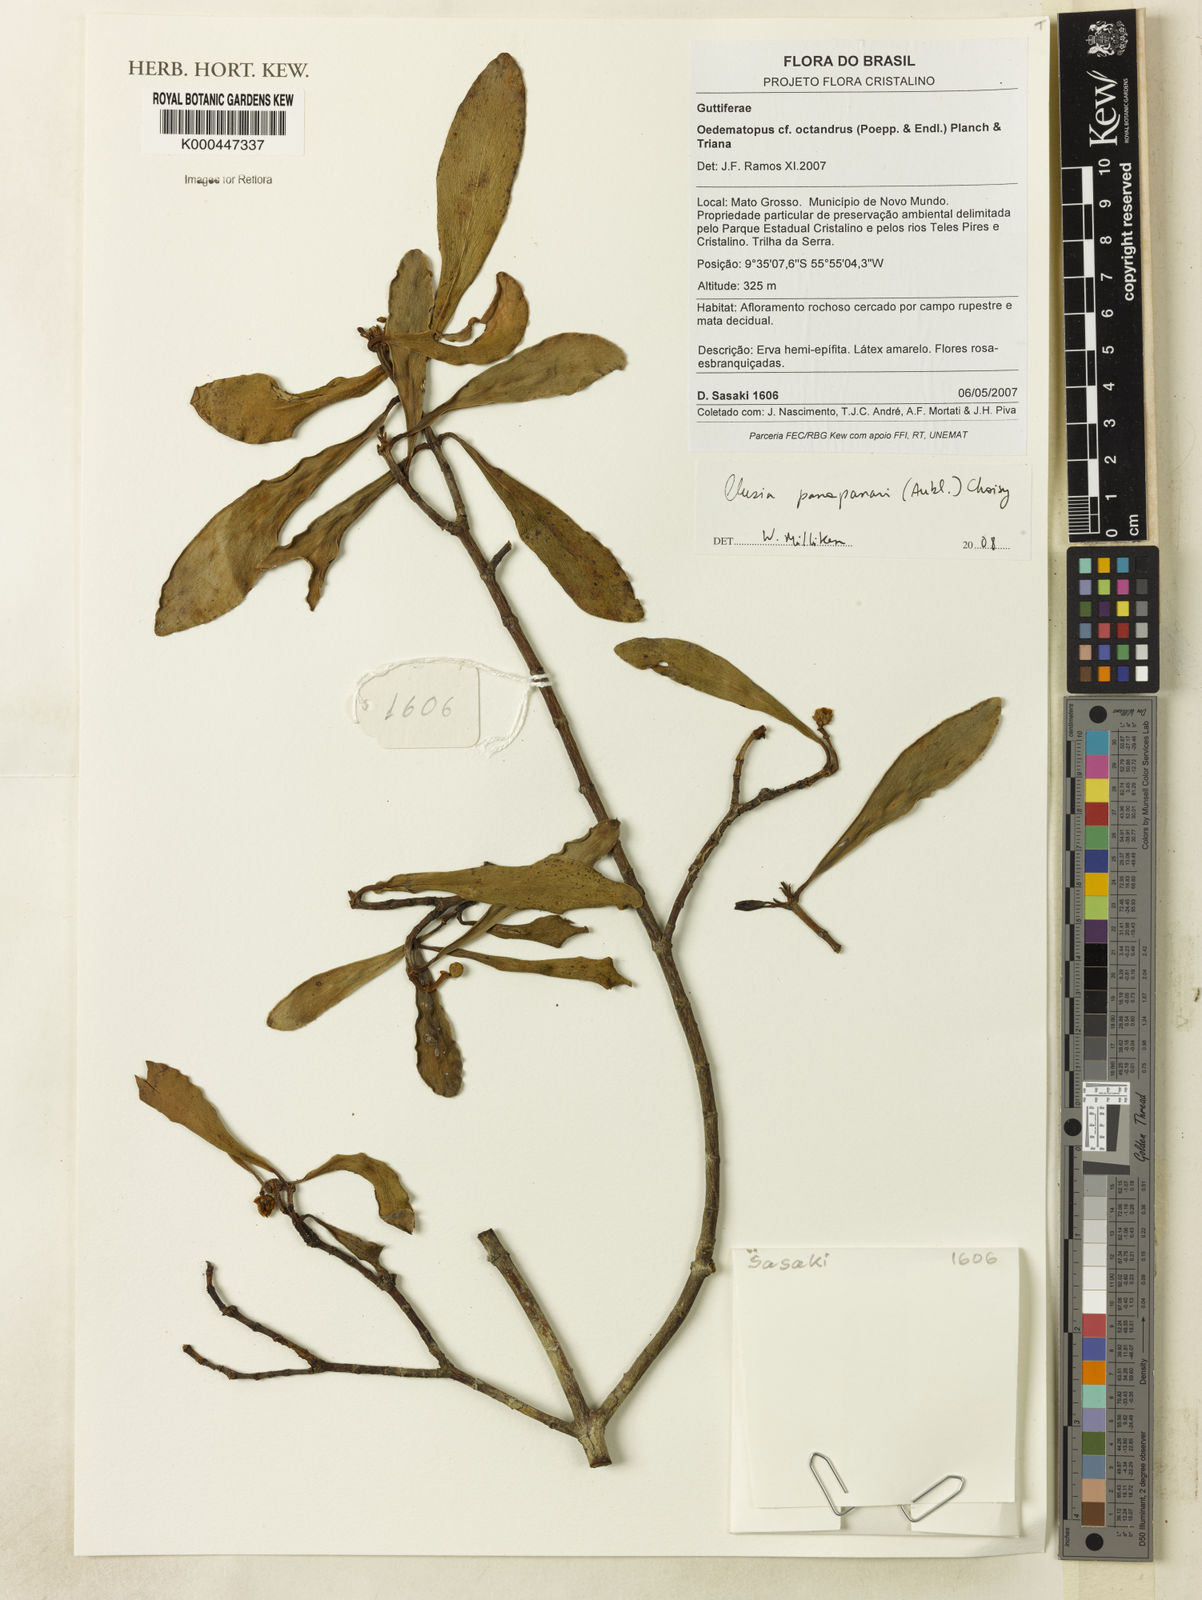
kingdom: Plantae
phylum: Tracheophyta
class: Magnoliopsida
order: Malpighiales
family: Clusiaceae
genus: Clusia
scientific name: Clusia panapanari
